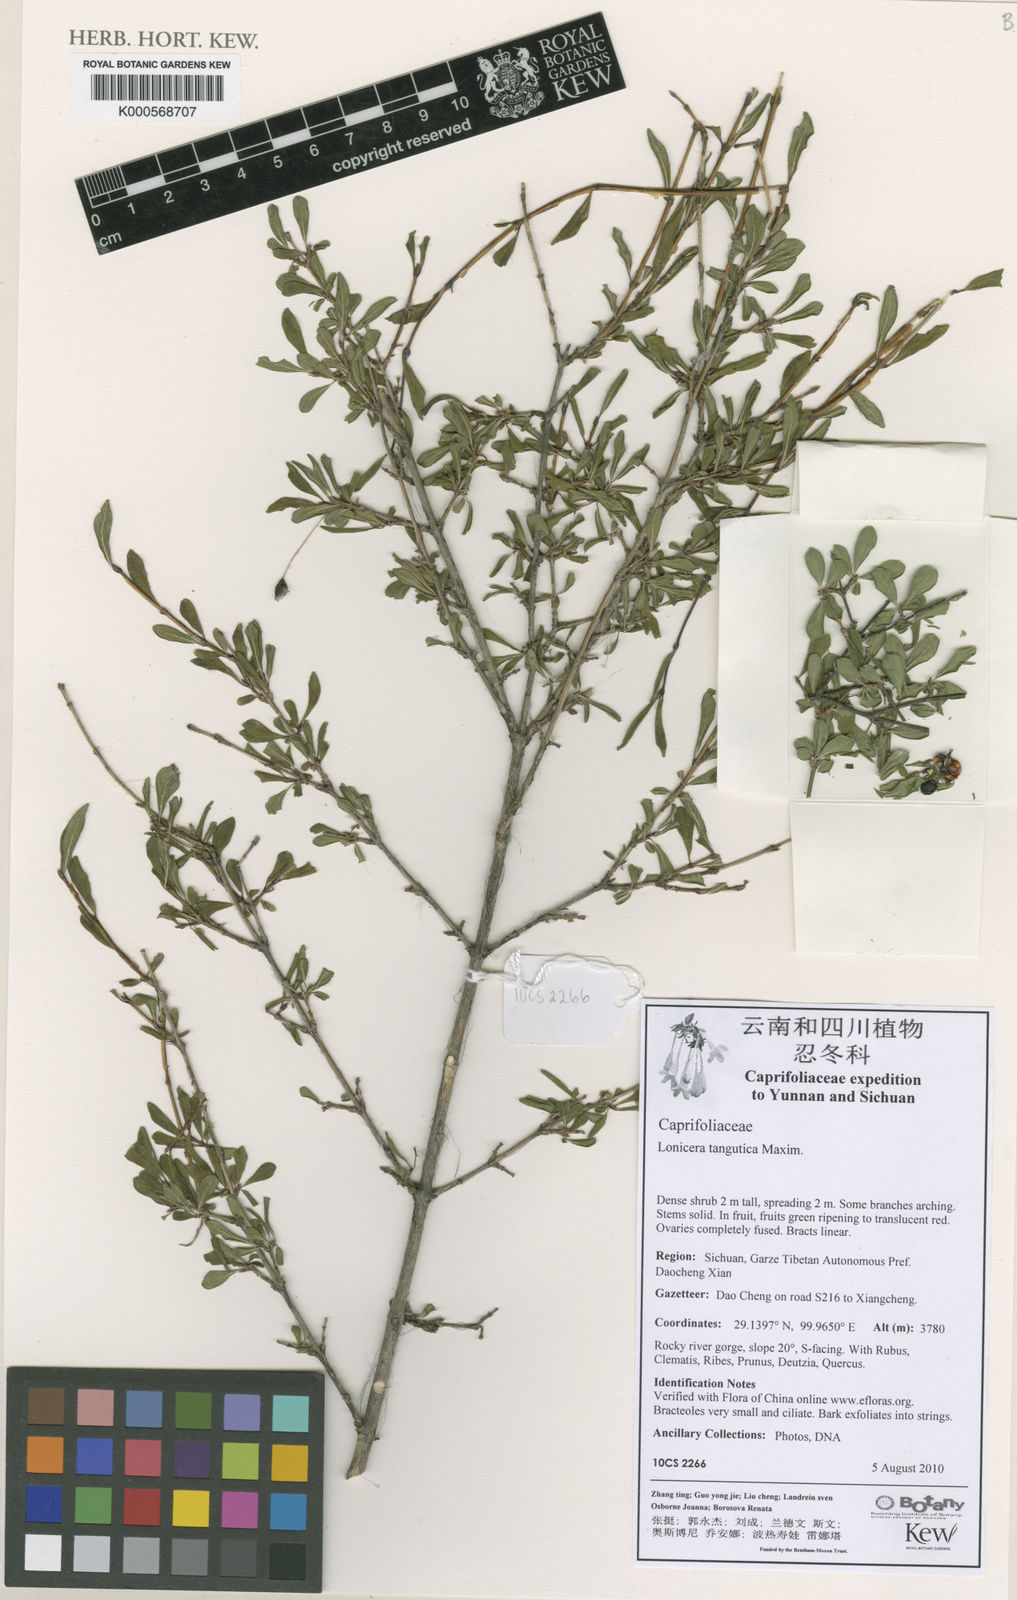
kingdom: Plantae
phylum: Tracheophyta
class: Magnoliopsida
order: Dipsacales
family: Caprifoliaceae
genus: Lonicera
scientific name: Lonicera tangutica
